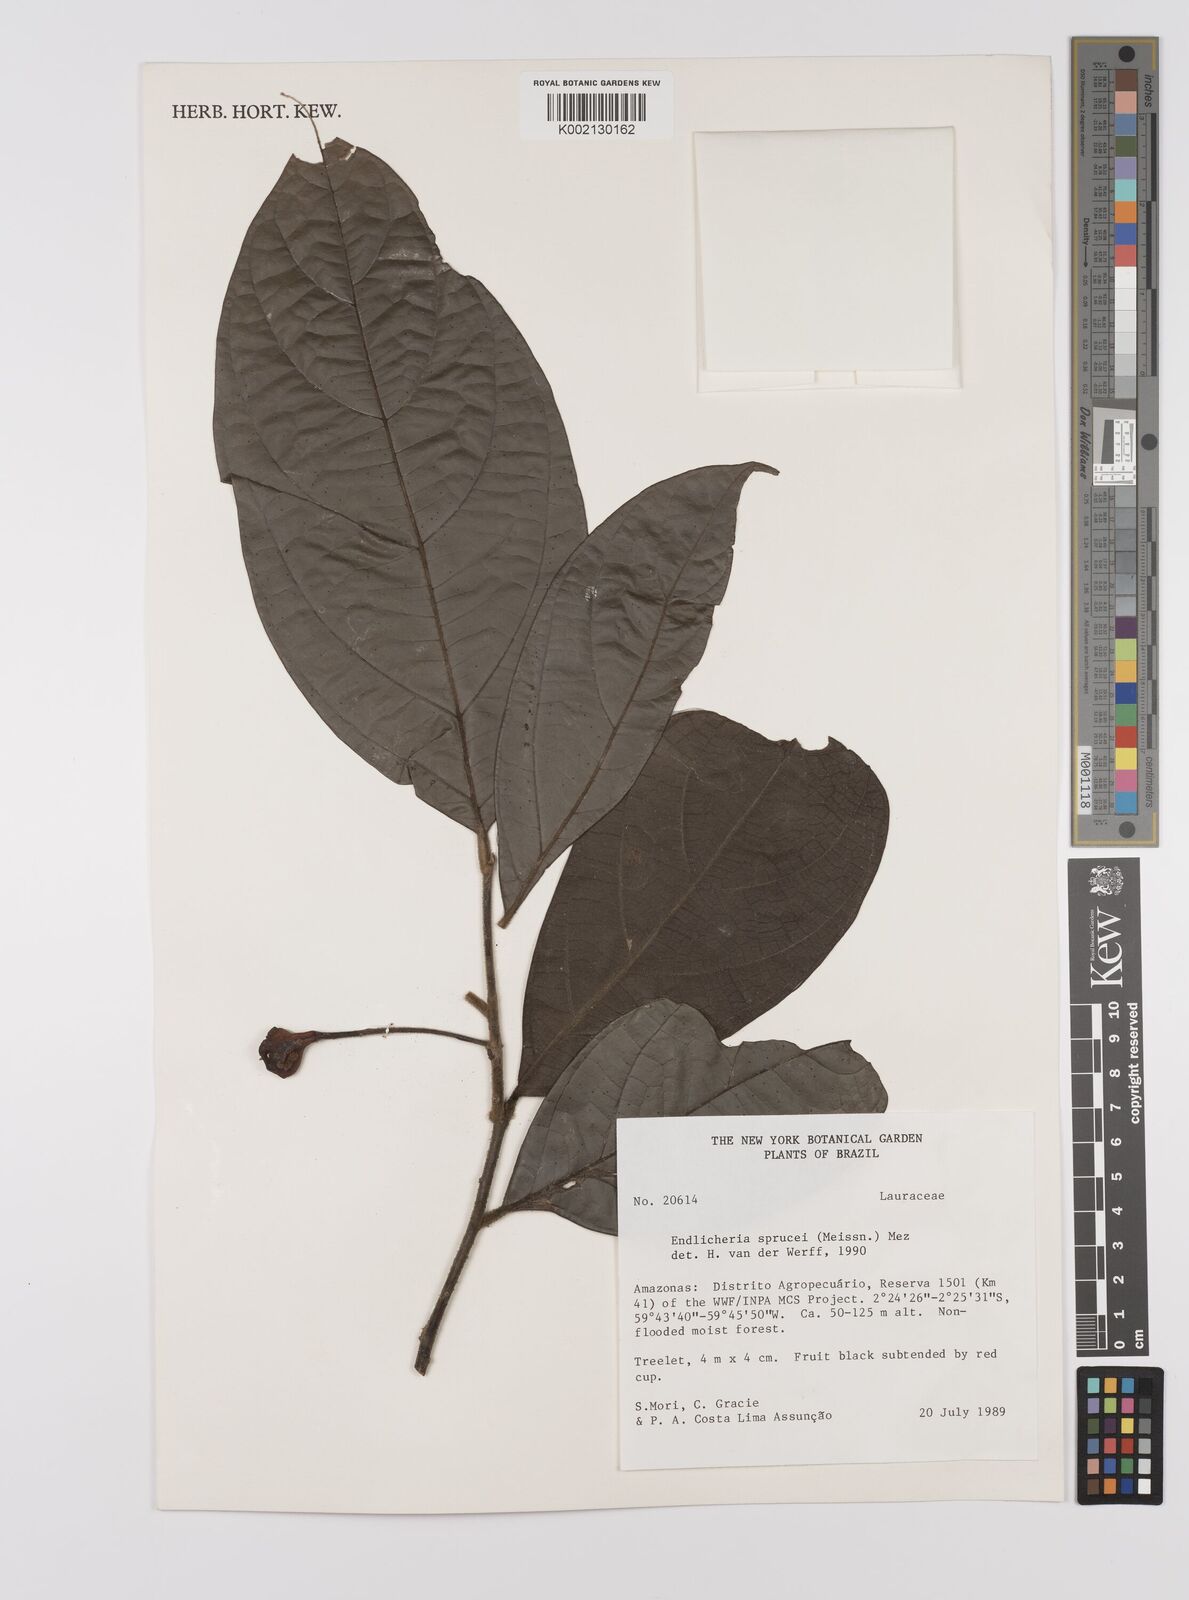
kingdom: Plantae
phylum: Tracheophyta
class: Magnoliopsida
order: Laurales
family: Lauraceae
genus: Endlicheria
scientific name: Endlicheria sprucei
